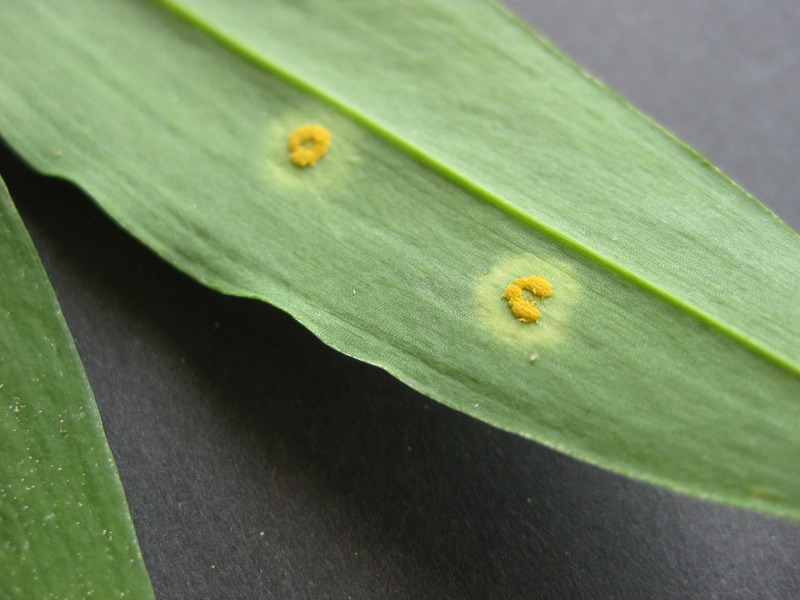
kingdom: Fungi
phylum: Basidiomycota
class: Pucciniomycetes
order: Pucciniales
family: Melampsoraceae
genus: Melampsora
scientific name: Melampsora allii-fragilis
